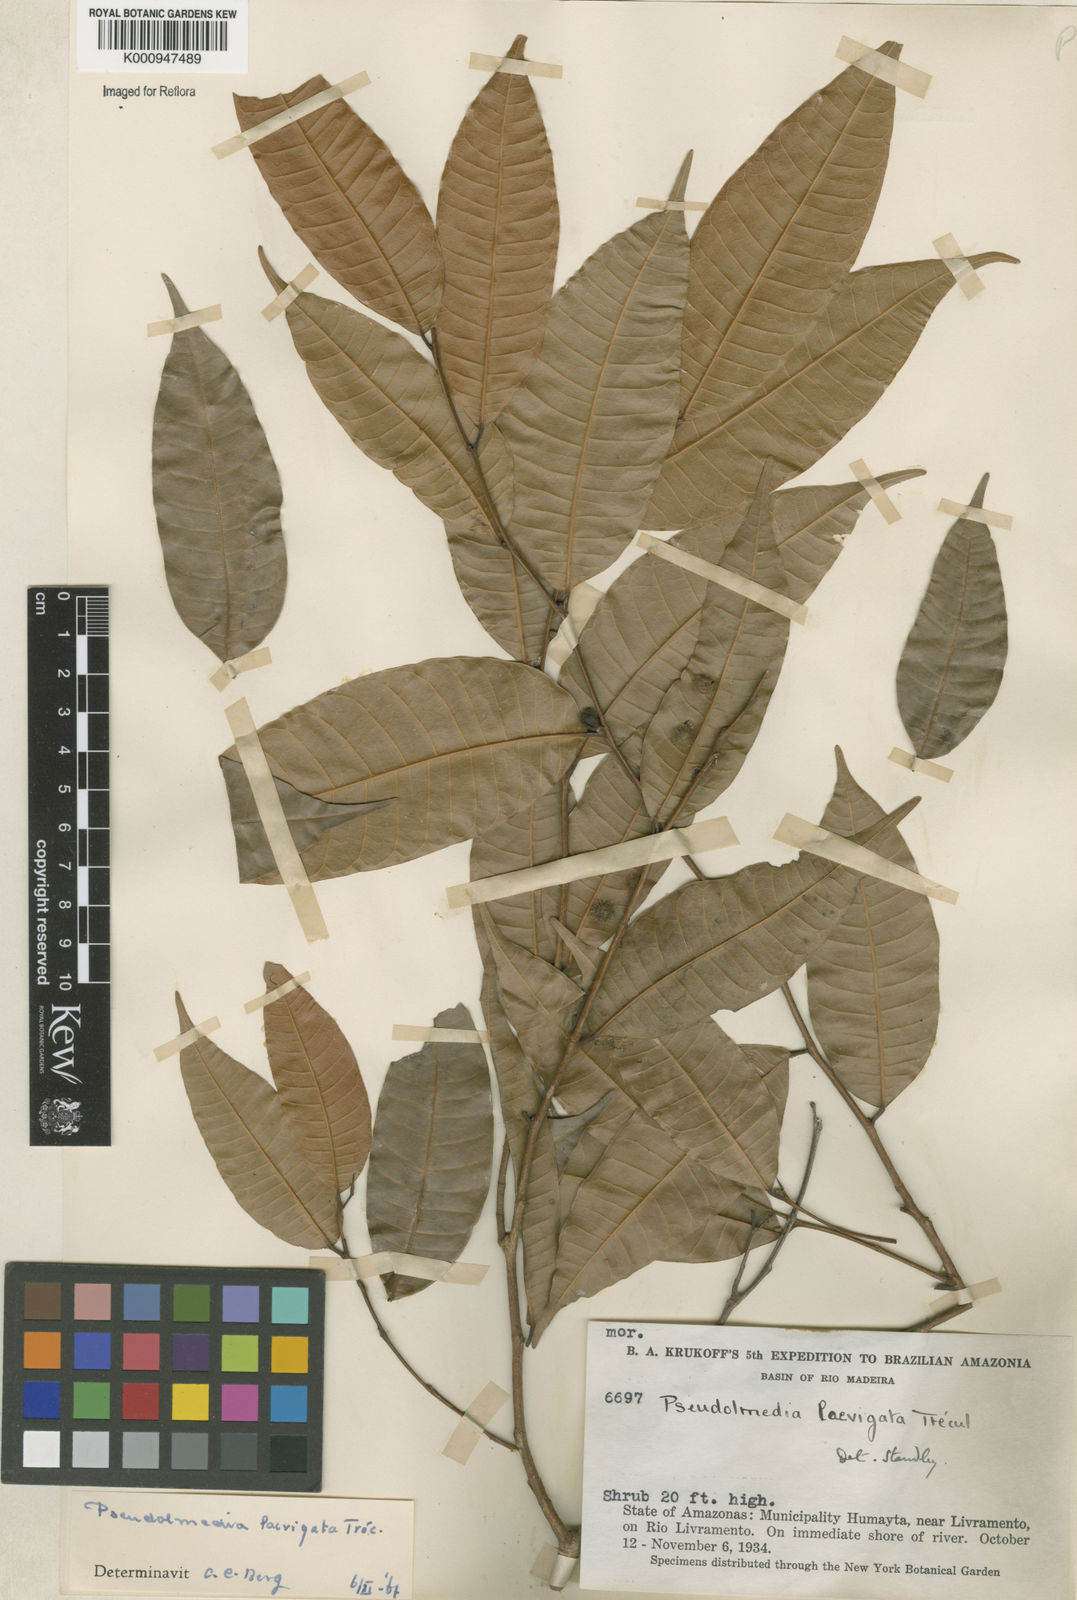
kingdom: Plantae
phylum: Tracheophyta
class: Magnoliopsida
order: Rosales
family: Moraceae
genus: Pseudolmedia
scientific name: Pseudolmedia
